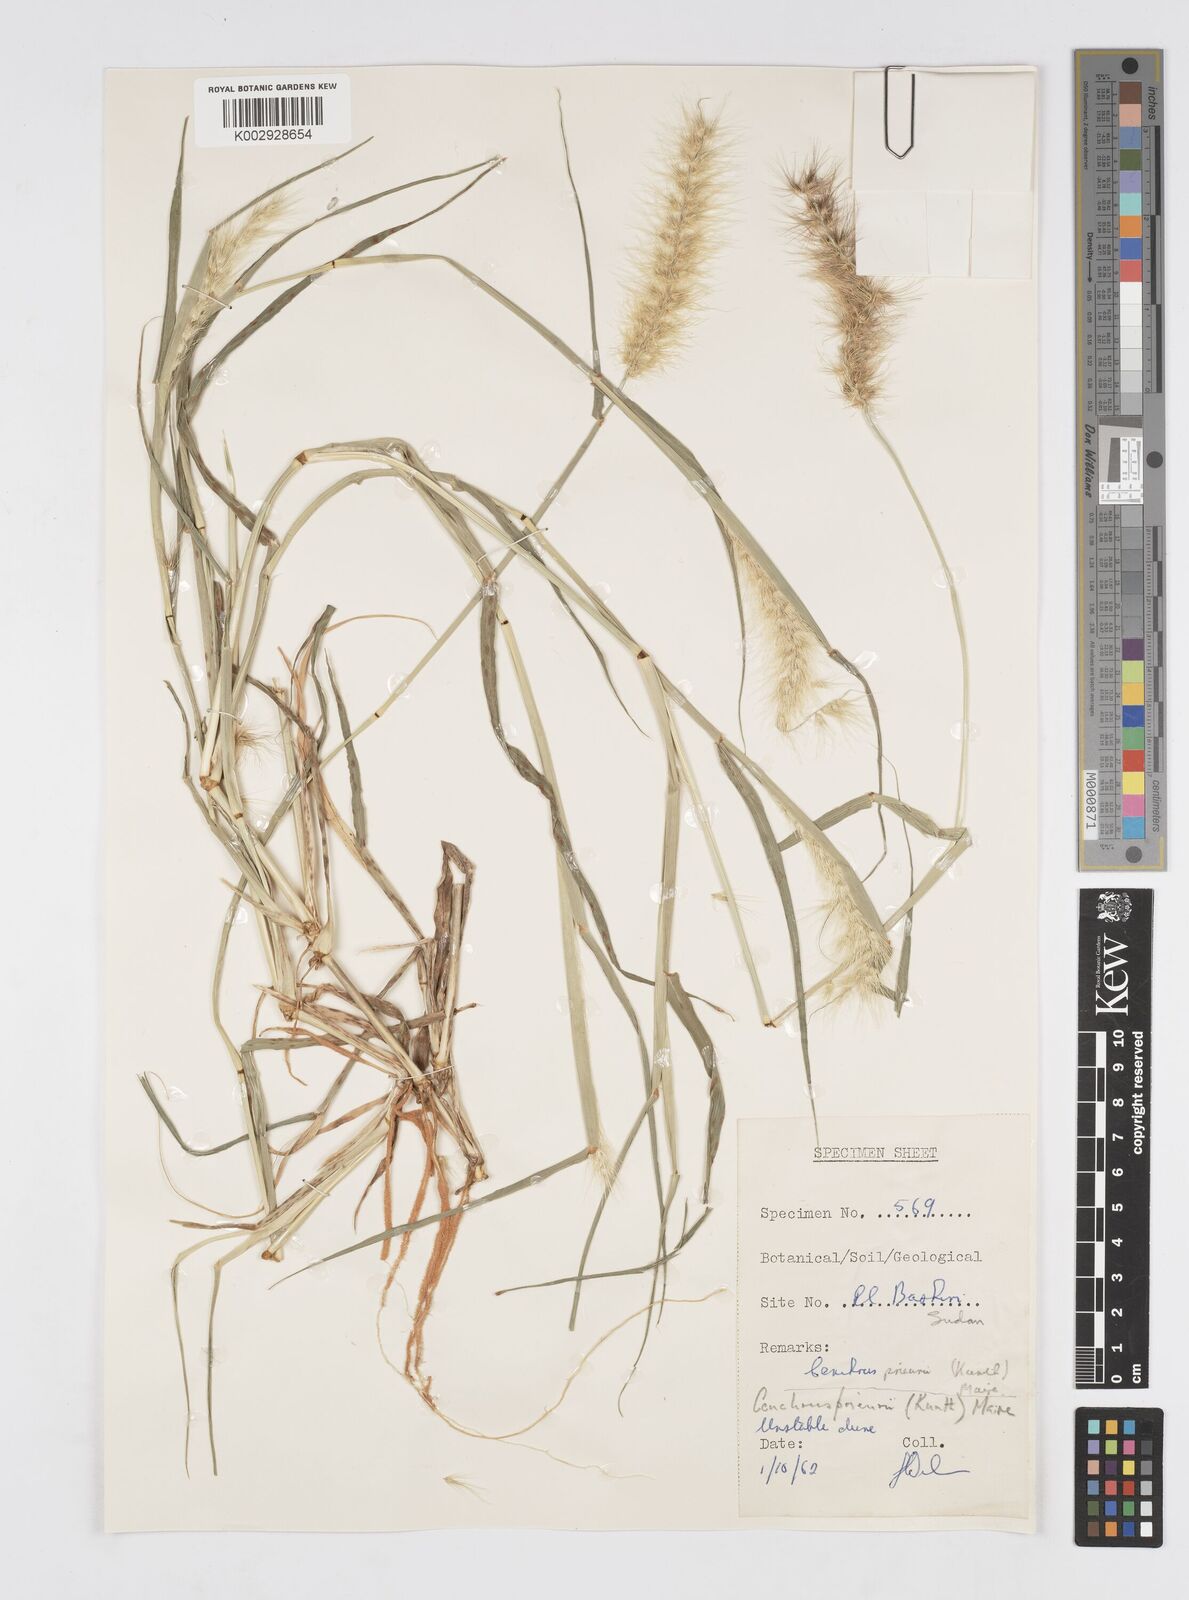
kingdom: Plantae
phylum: Tracheophyta
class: Liliopsida
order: Poales
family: Poaceae
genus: Cenchrus
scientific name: Cenchrus prieurii
